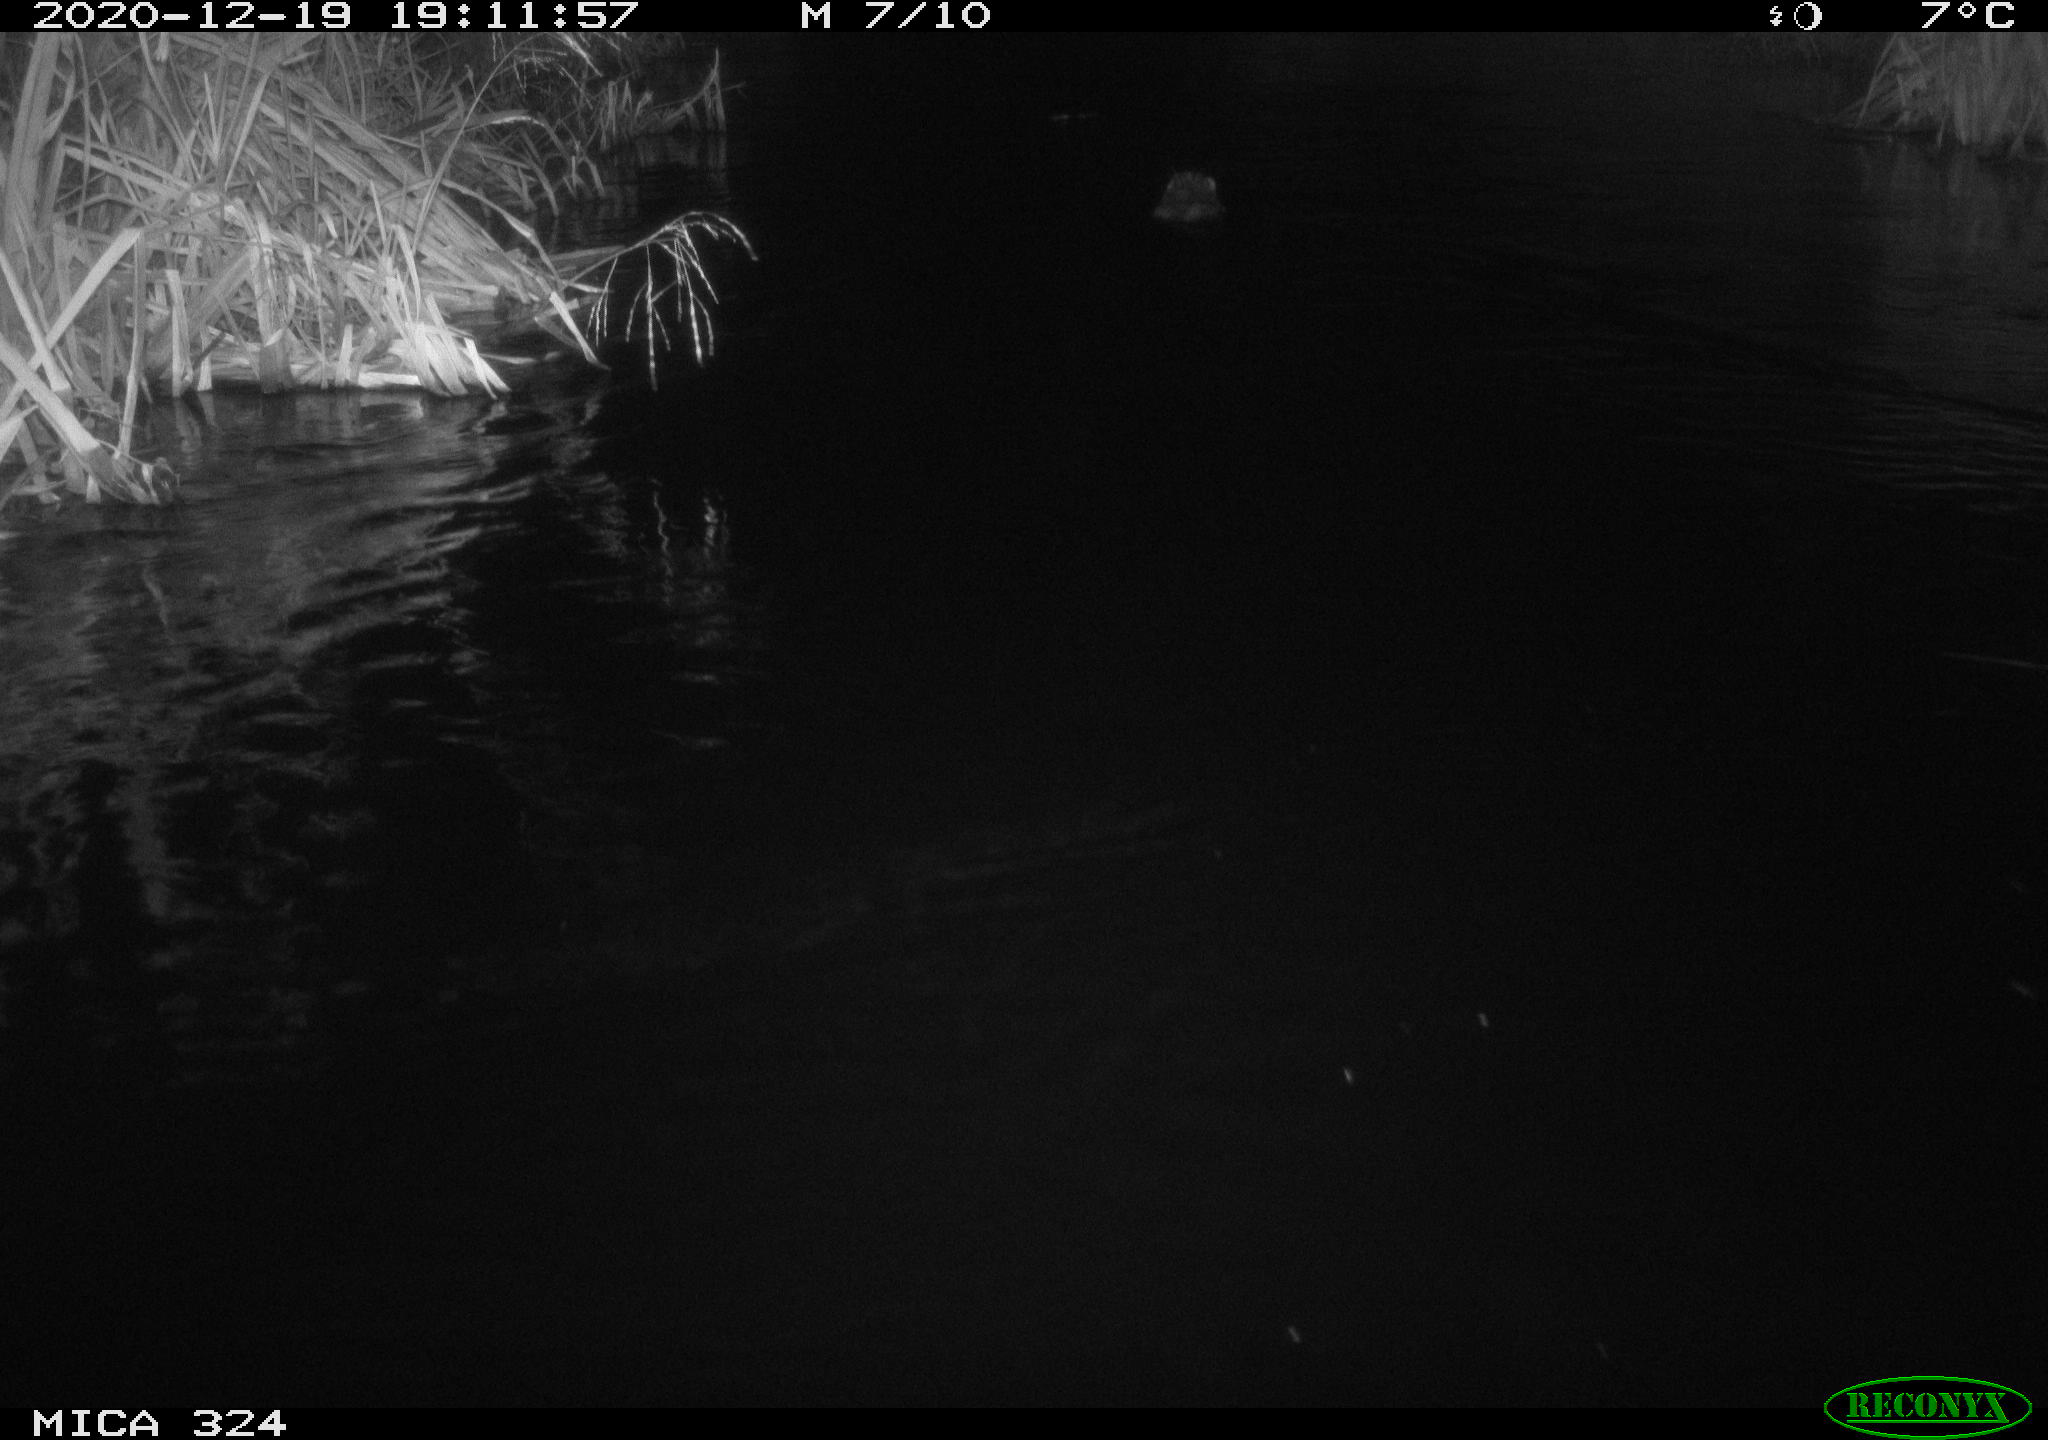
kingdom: Animalia
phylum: Chordata
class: Mammalia
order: Rodentia
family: Castoridae
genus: Castor
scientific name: Castor fiber
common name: Eurasian beaver
